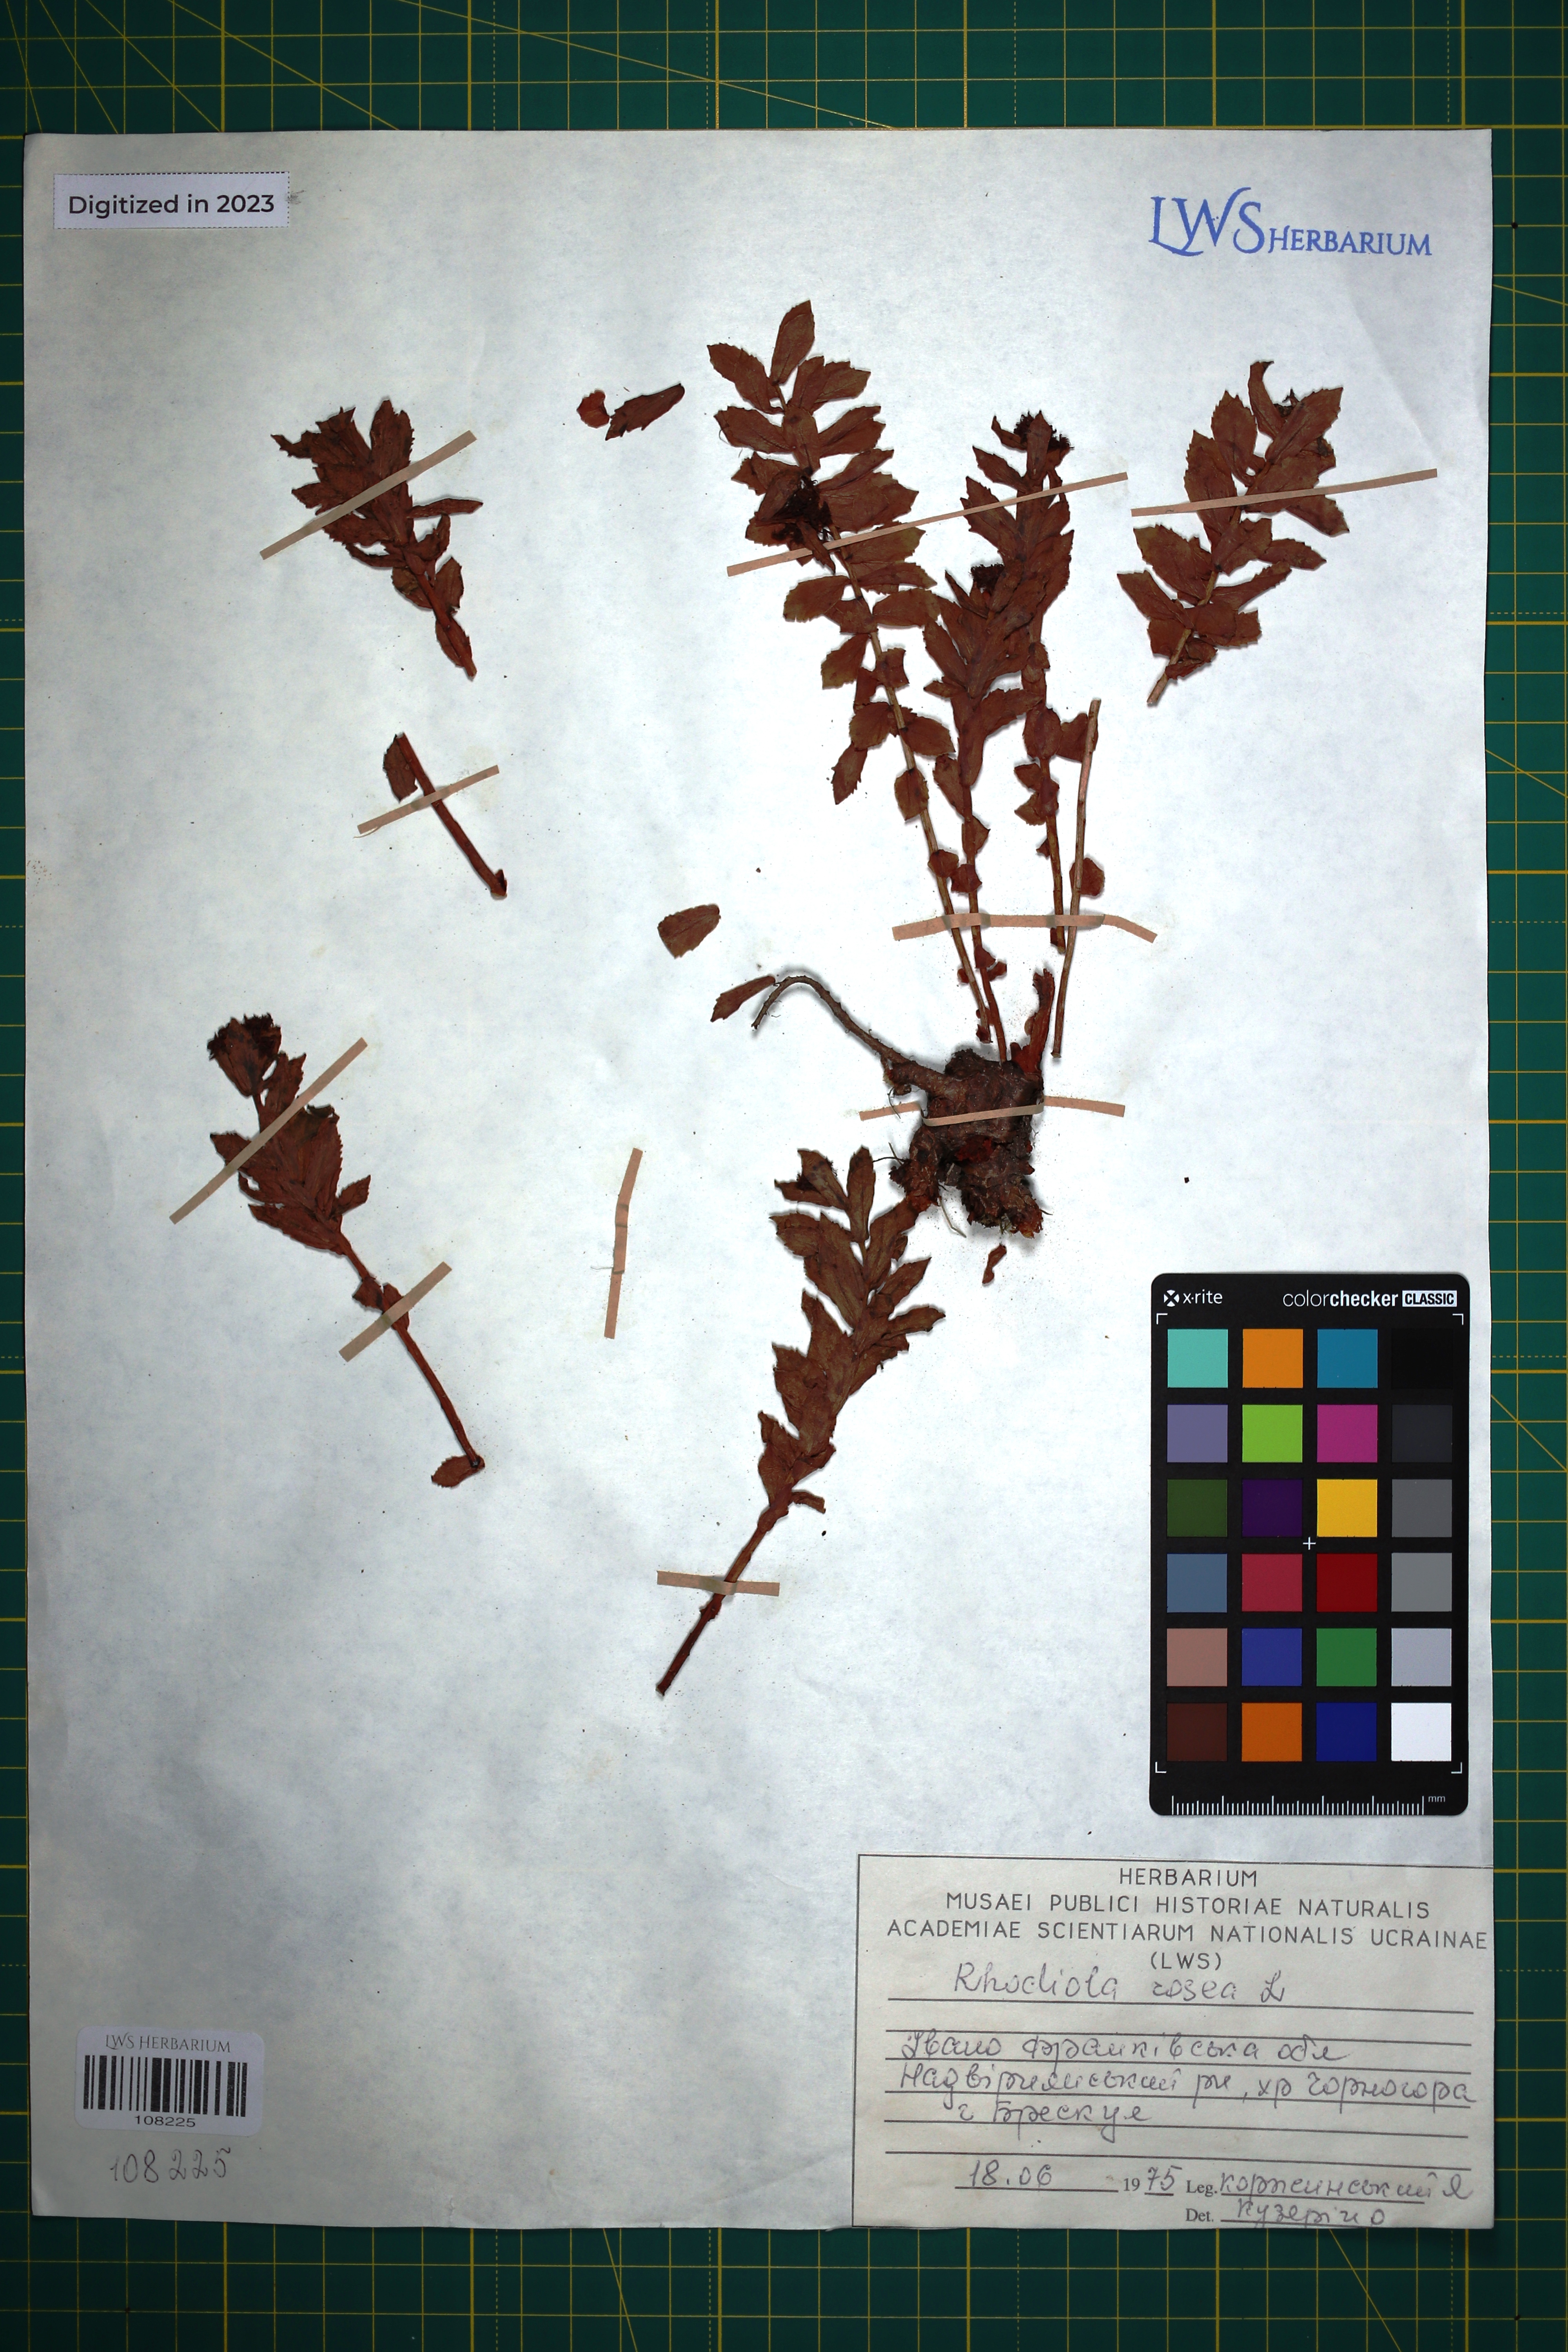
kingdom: Plantae
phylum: Tracheophyta
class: Magnoliopsida
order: Saxifragales
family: Crassulaceae
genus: Rhodiola
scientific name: Rhodiola rosea
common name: Roseroot
